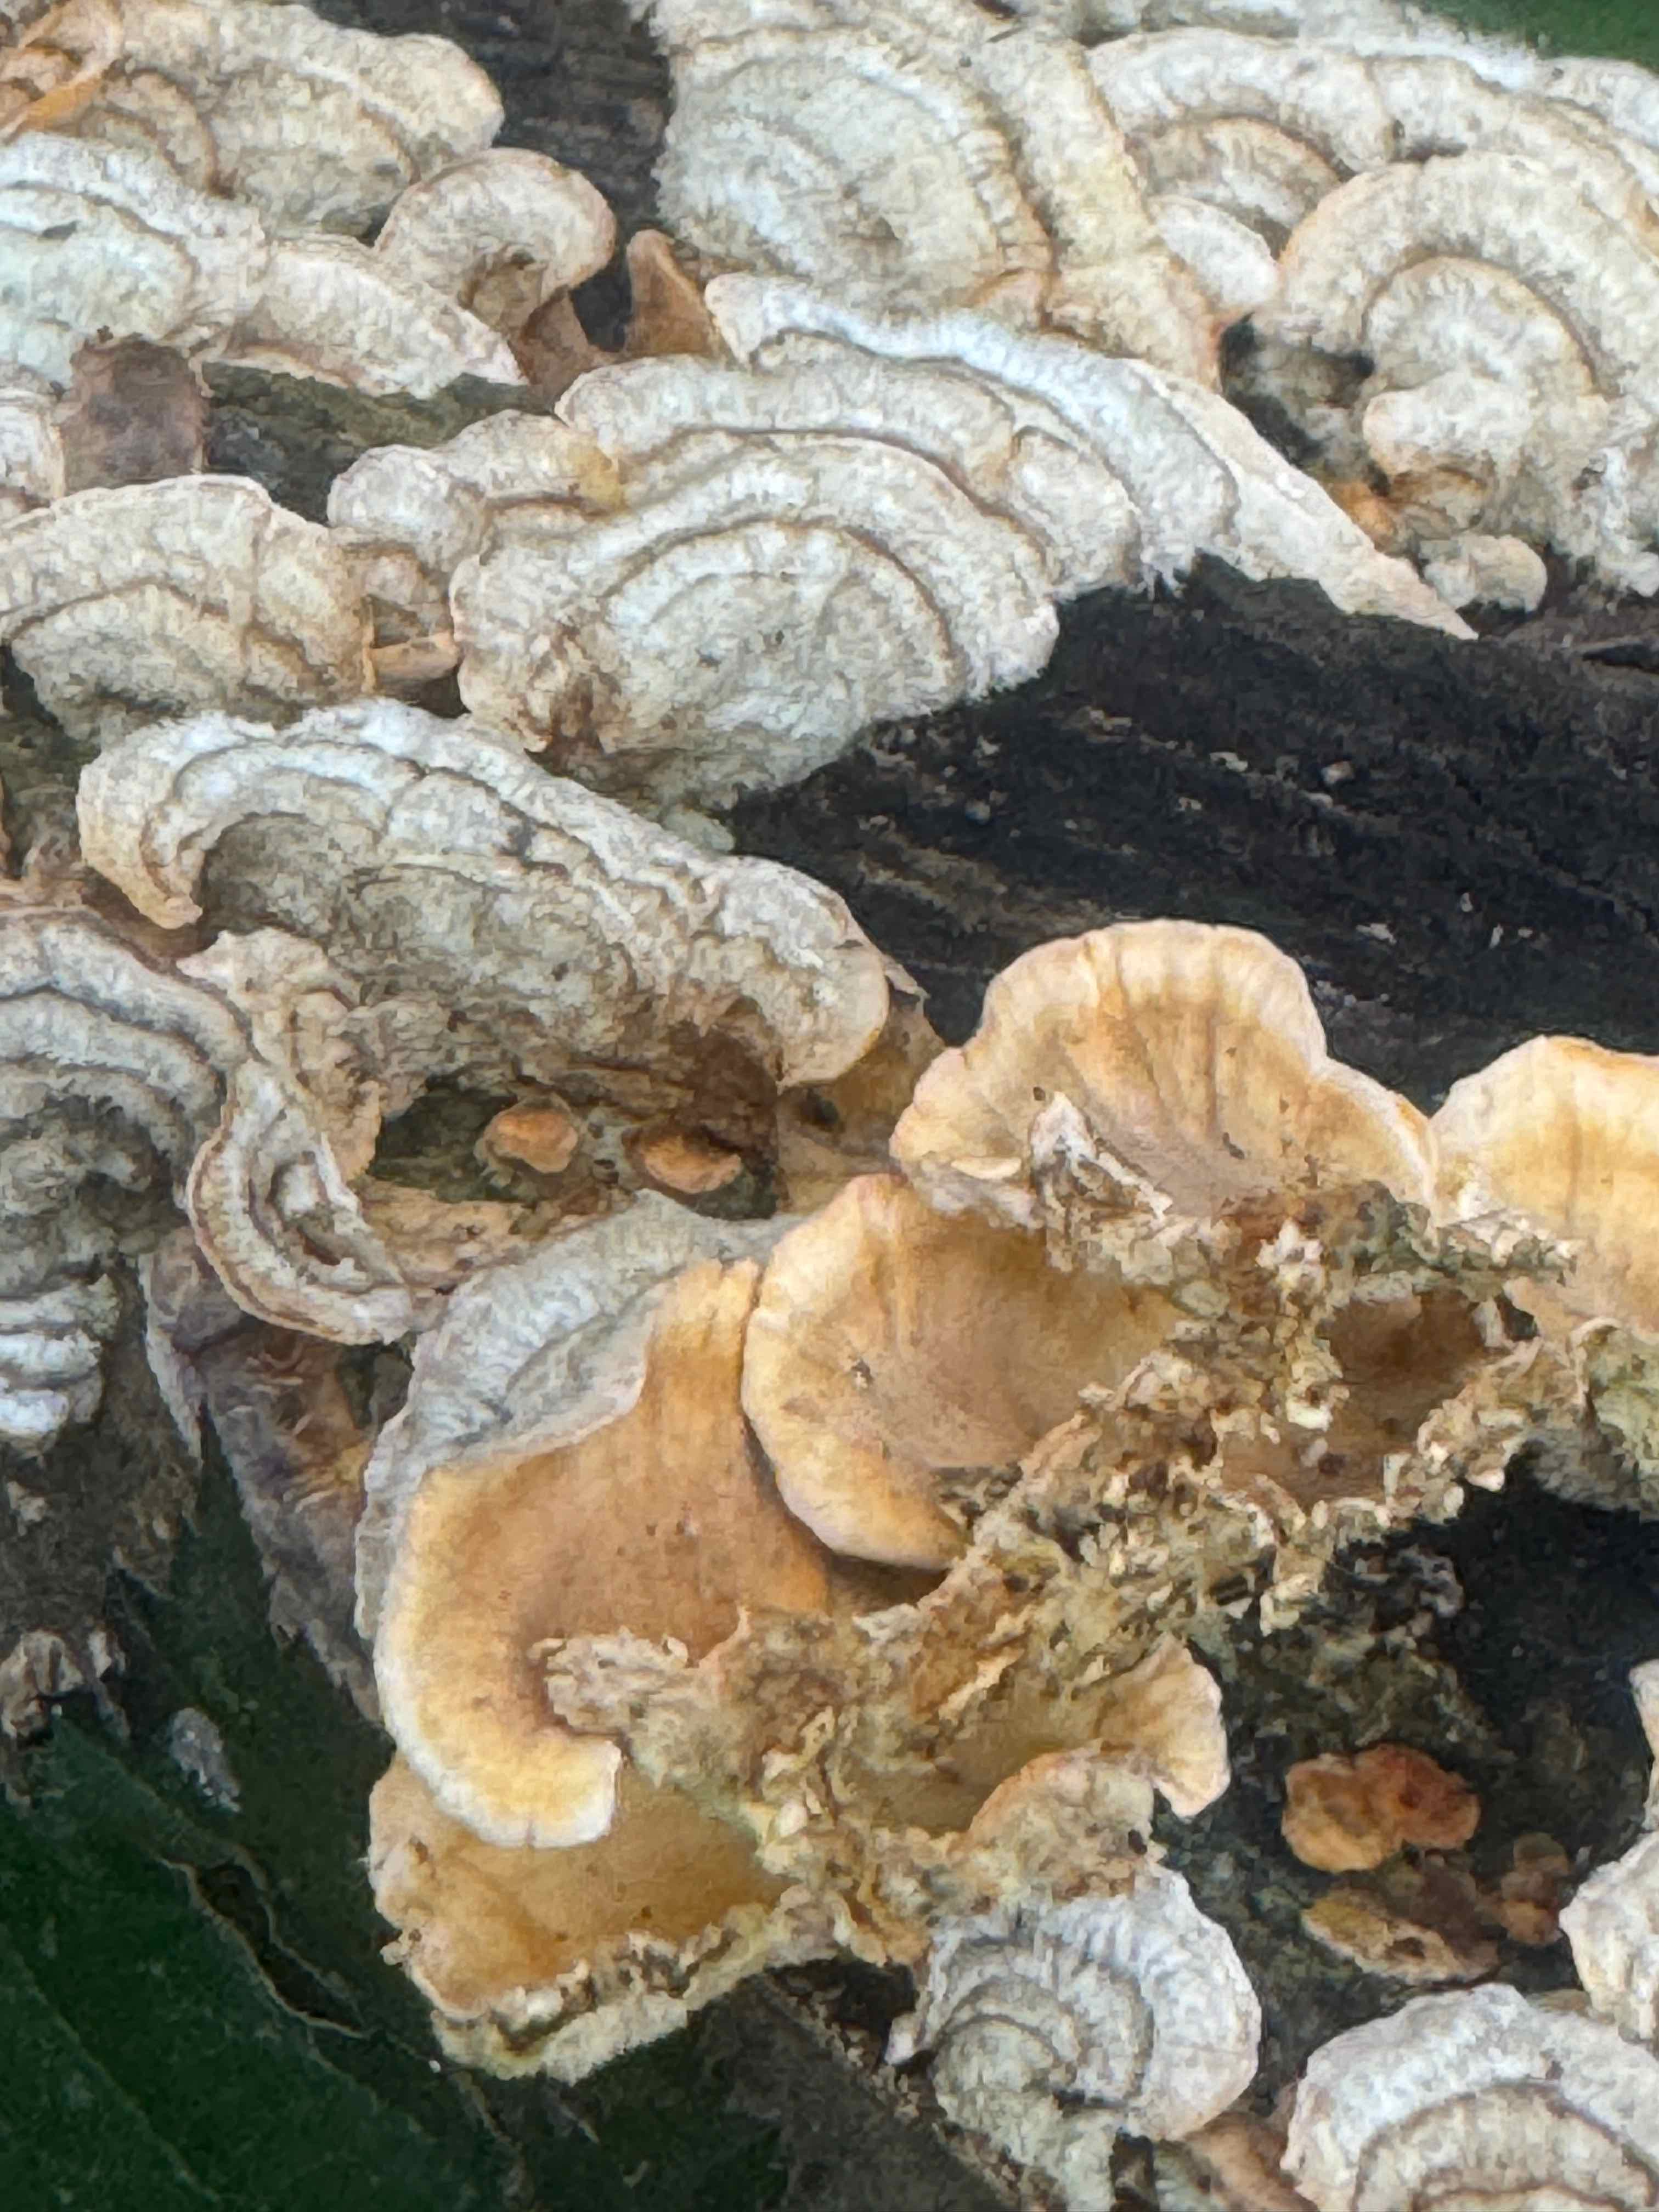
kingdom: Fungi
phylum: Basidiomycota
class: Agaricomycetes
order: Russulales
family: Stereaceae
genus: Stereum
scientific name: Stereum hirsutum
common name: håret lædersvamp
